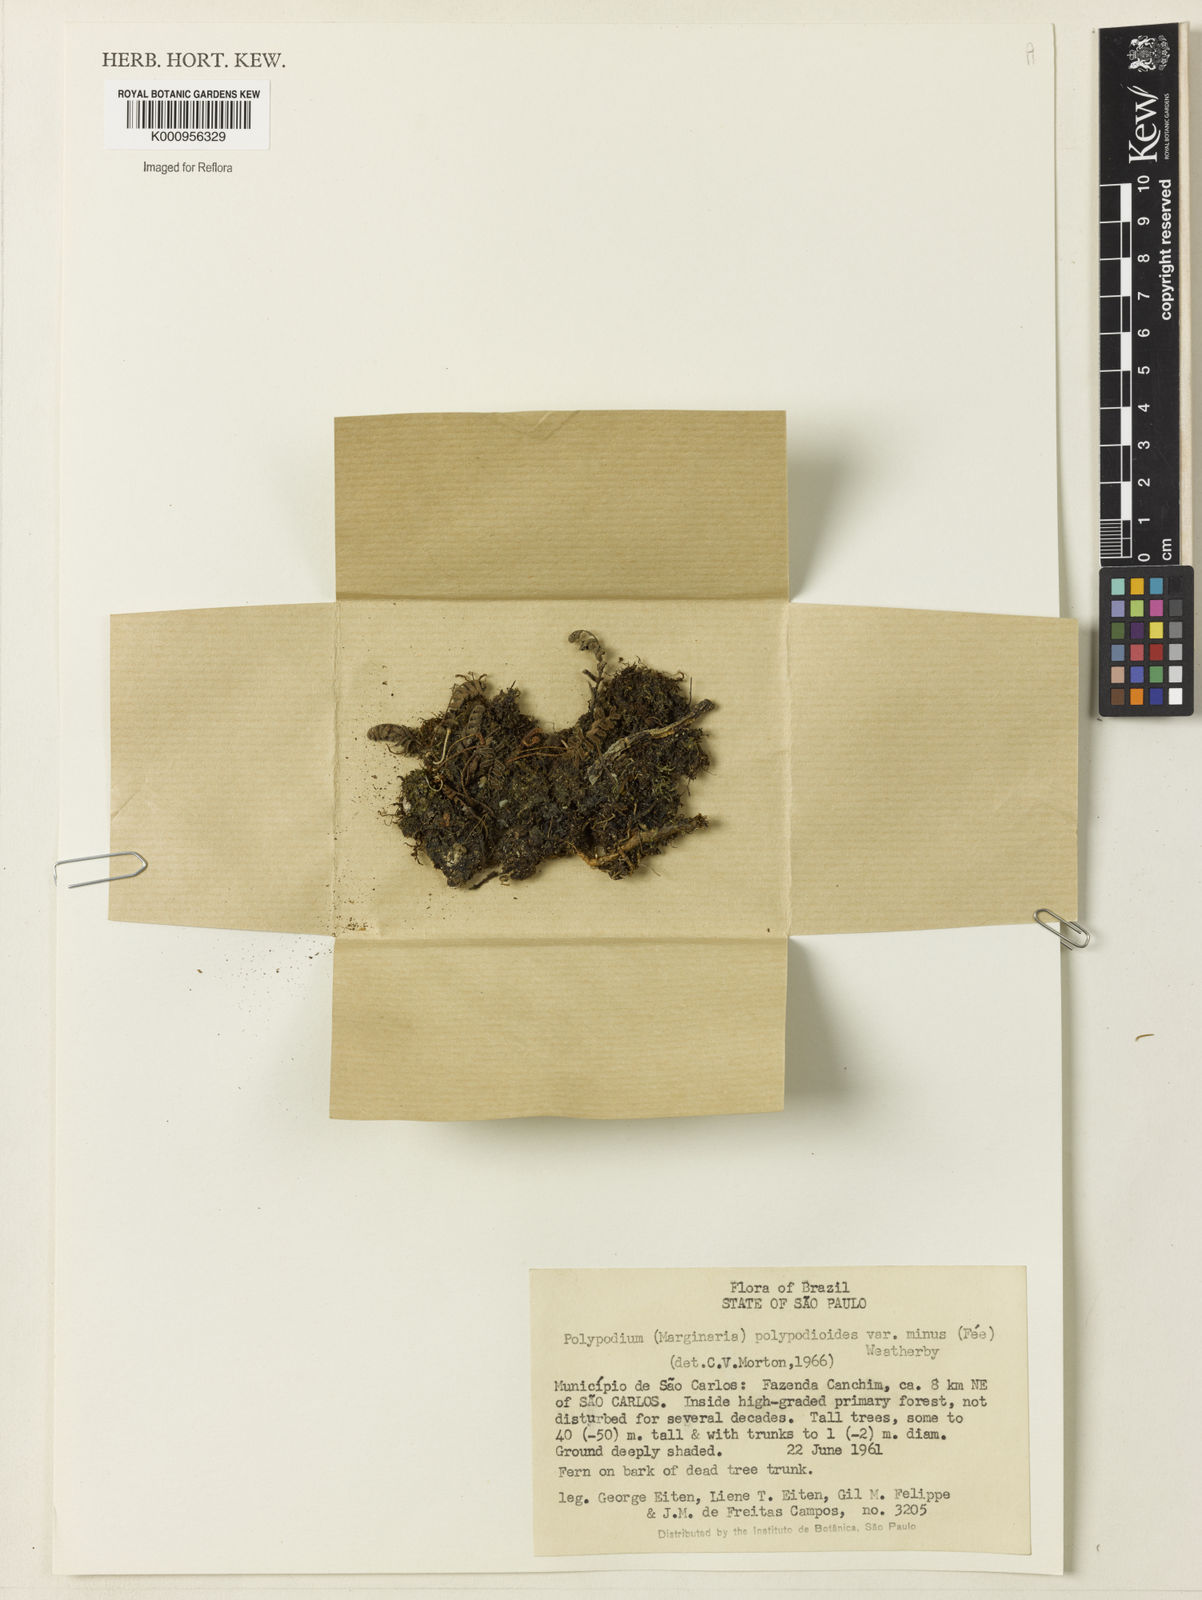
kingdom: Plantae
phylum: Tracheophyta
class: Polypodiopsida
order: Polypodiales
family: Polypodiaceae
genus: Pleopeltis
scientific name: Pleopeltis polypodioides
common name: Resurrection fern
